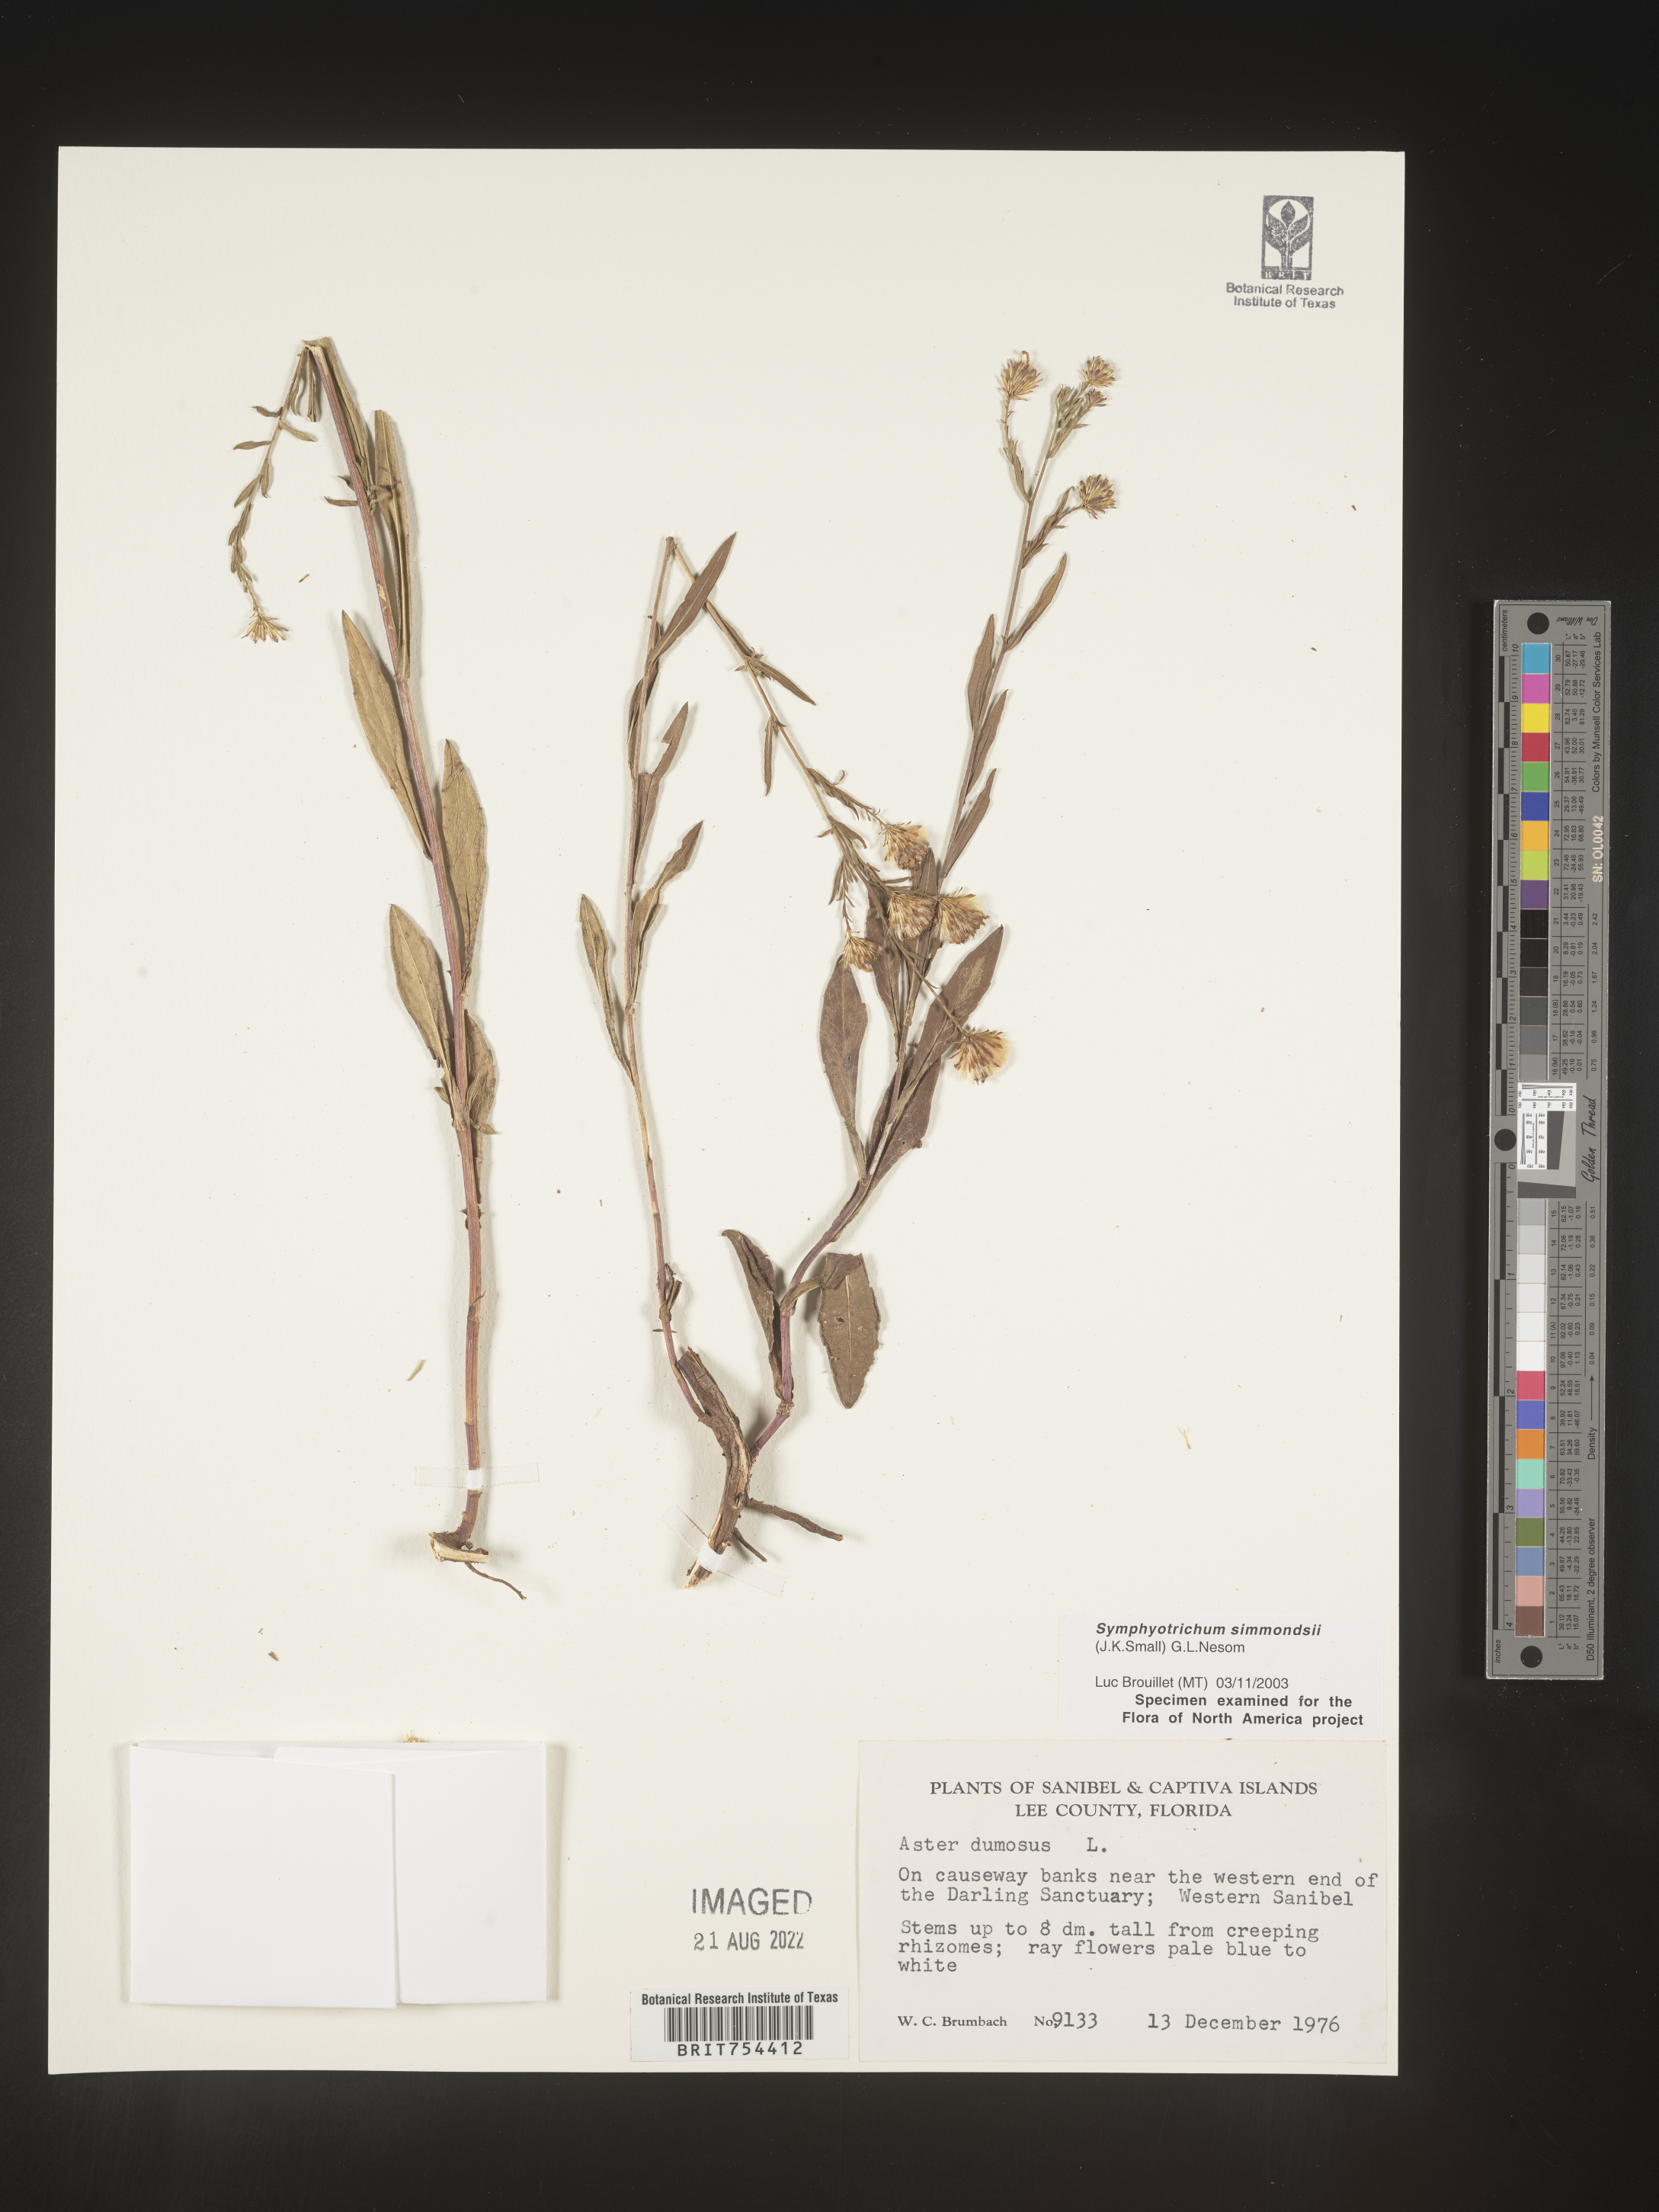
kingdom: Plantae
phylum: Tracheophyta
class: Magnoliopsida
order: Asterales
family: Asteraceae
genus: Symphyotrichum
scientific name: Symphyotrichum simmondsii
